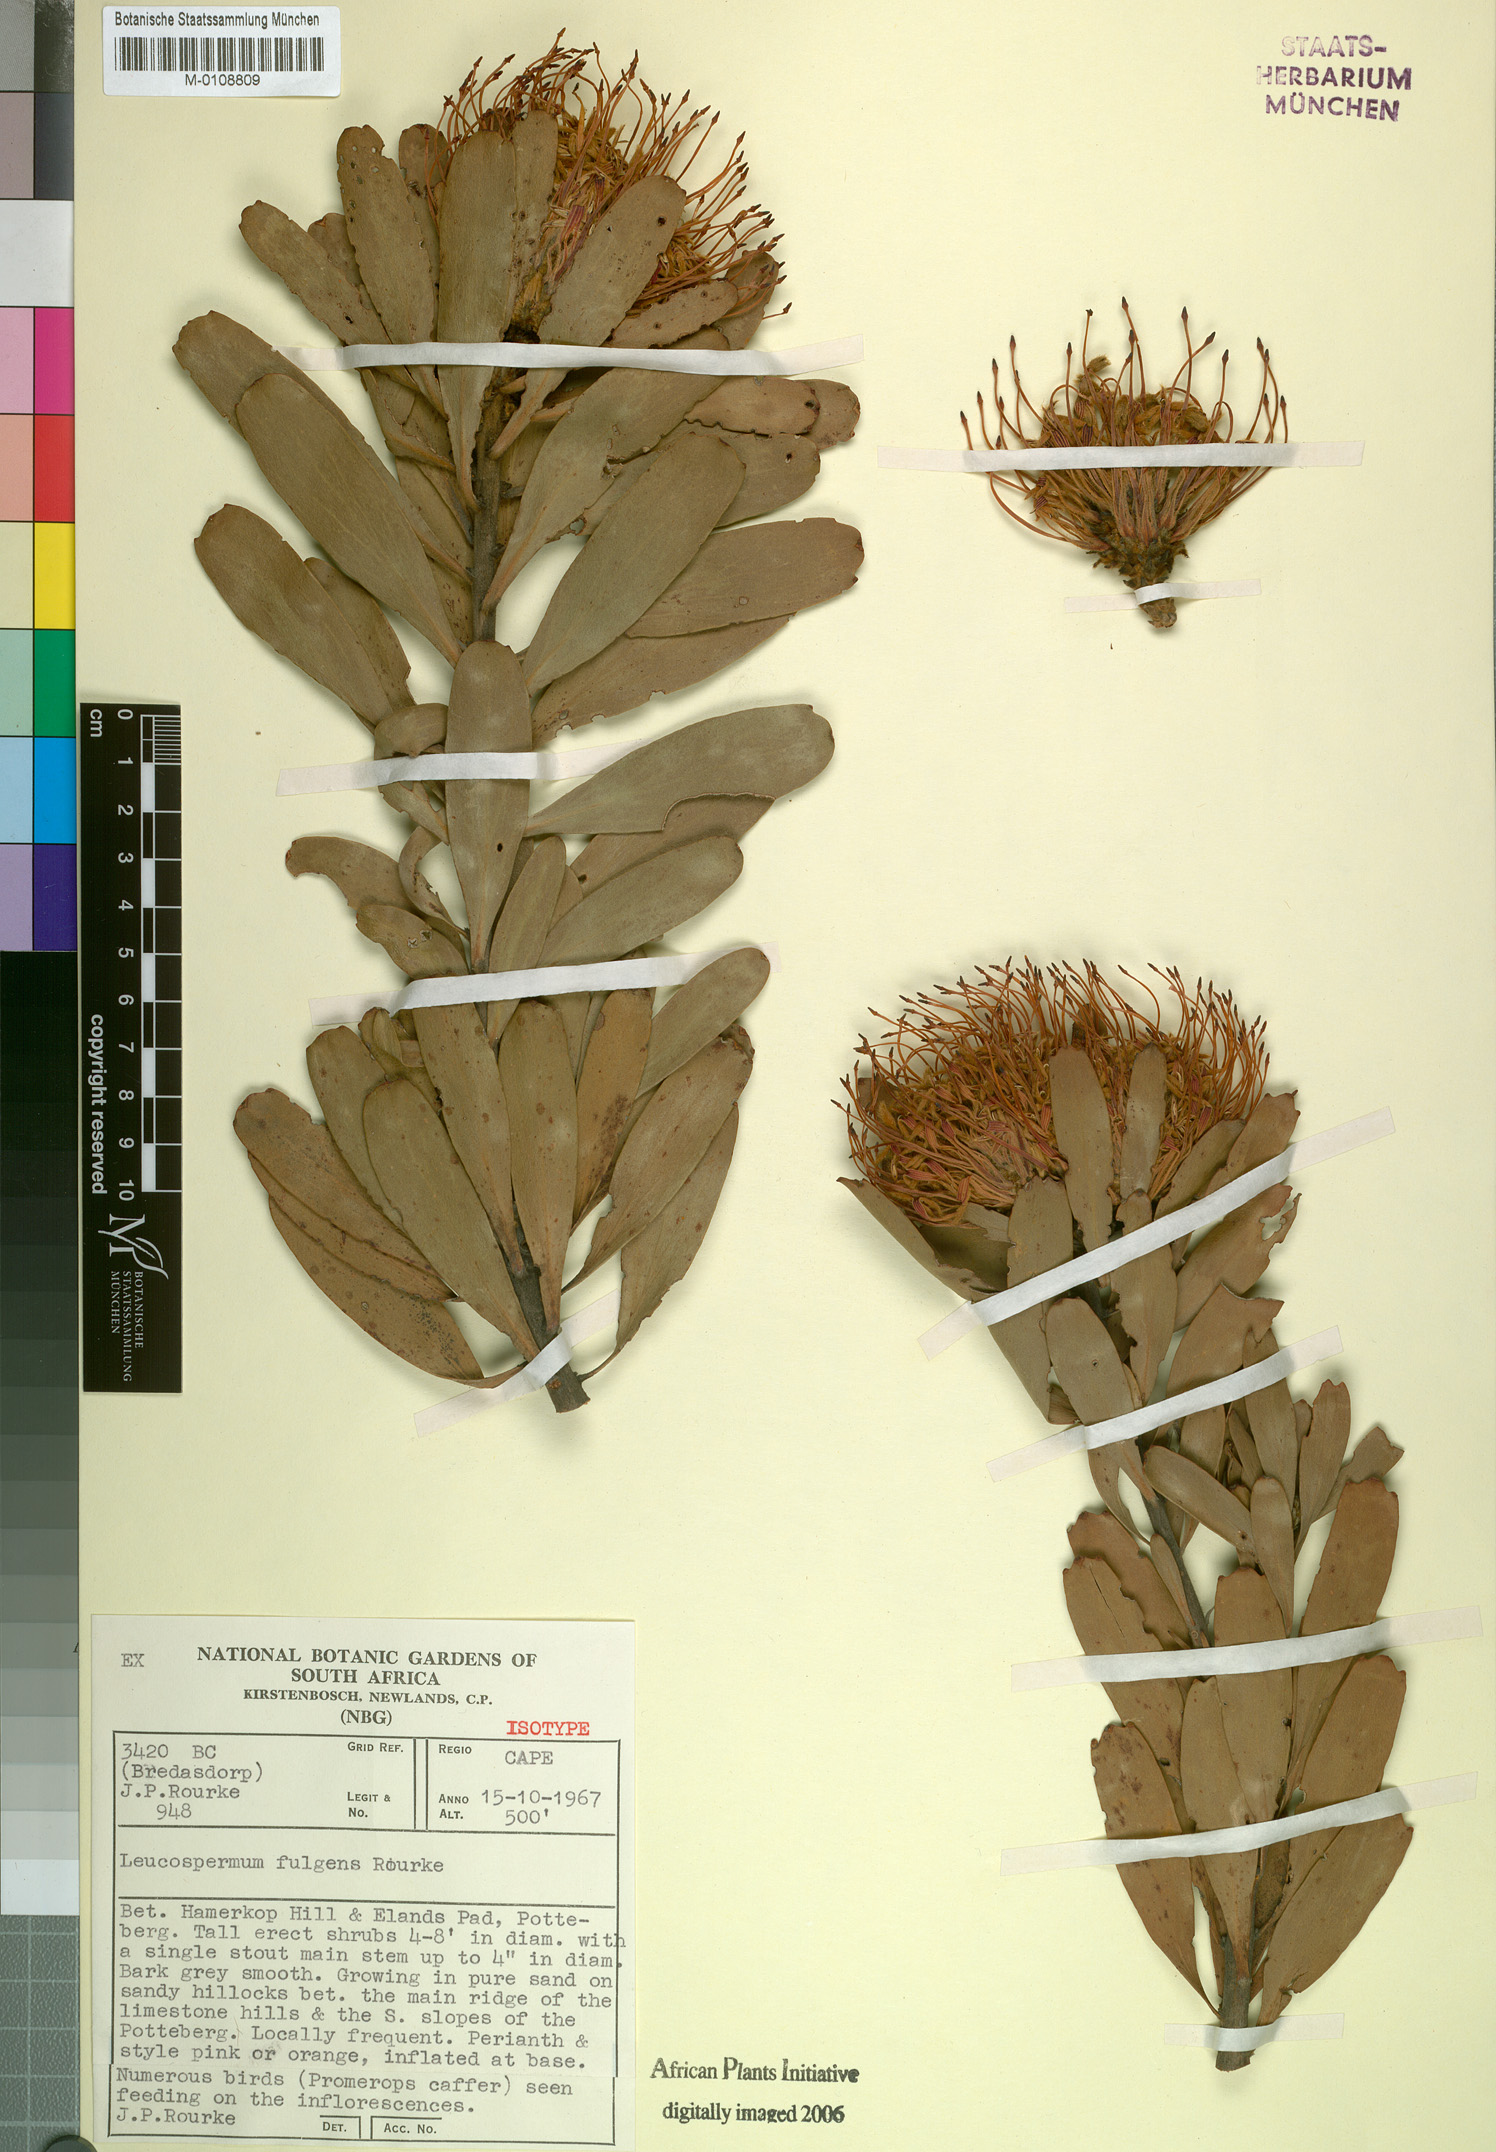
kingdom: Plantae
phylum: Tracheophyta
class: Magnoliopsida
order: Proteales
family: Proteaceae
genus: Leucospermum
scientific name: Leucospermum fulgens
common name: Potberg pincushion
